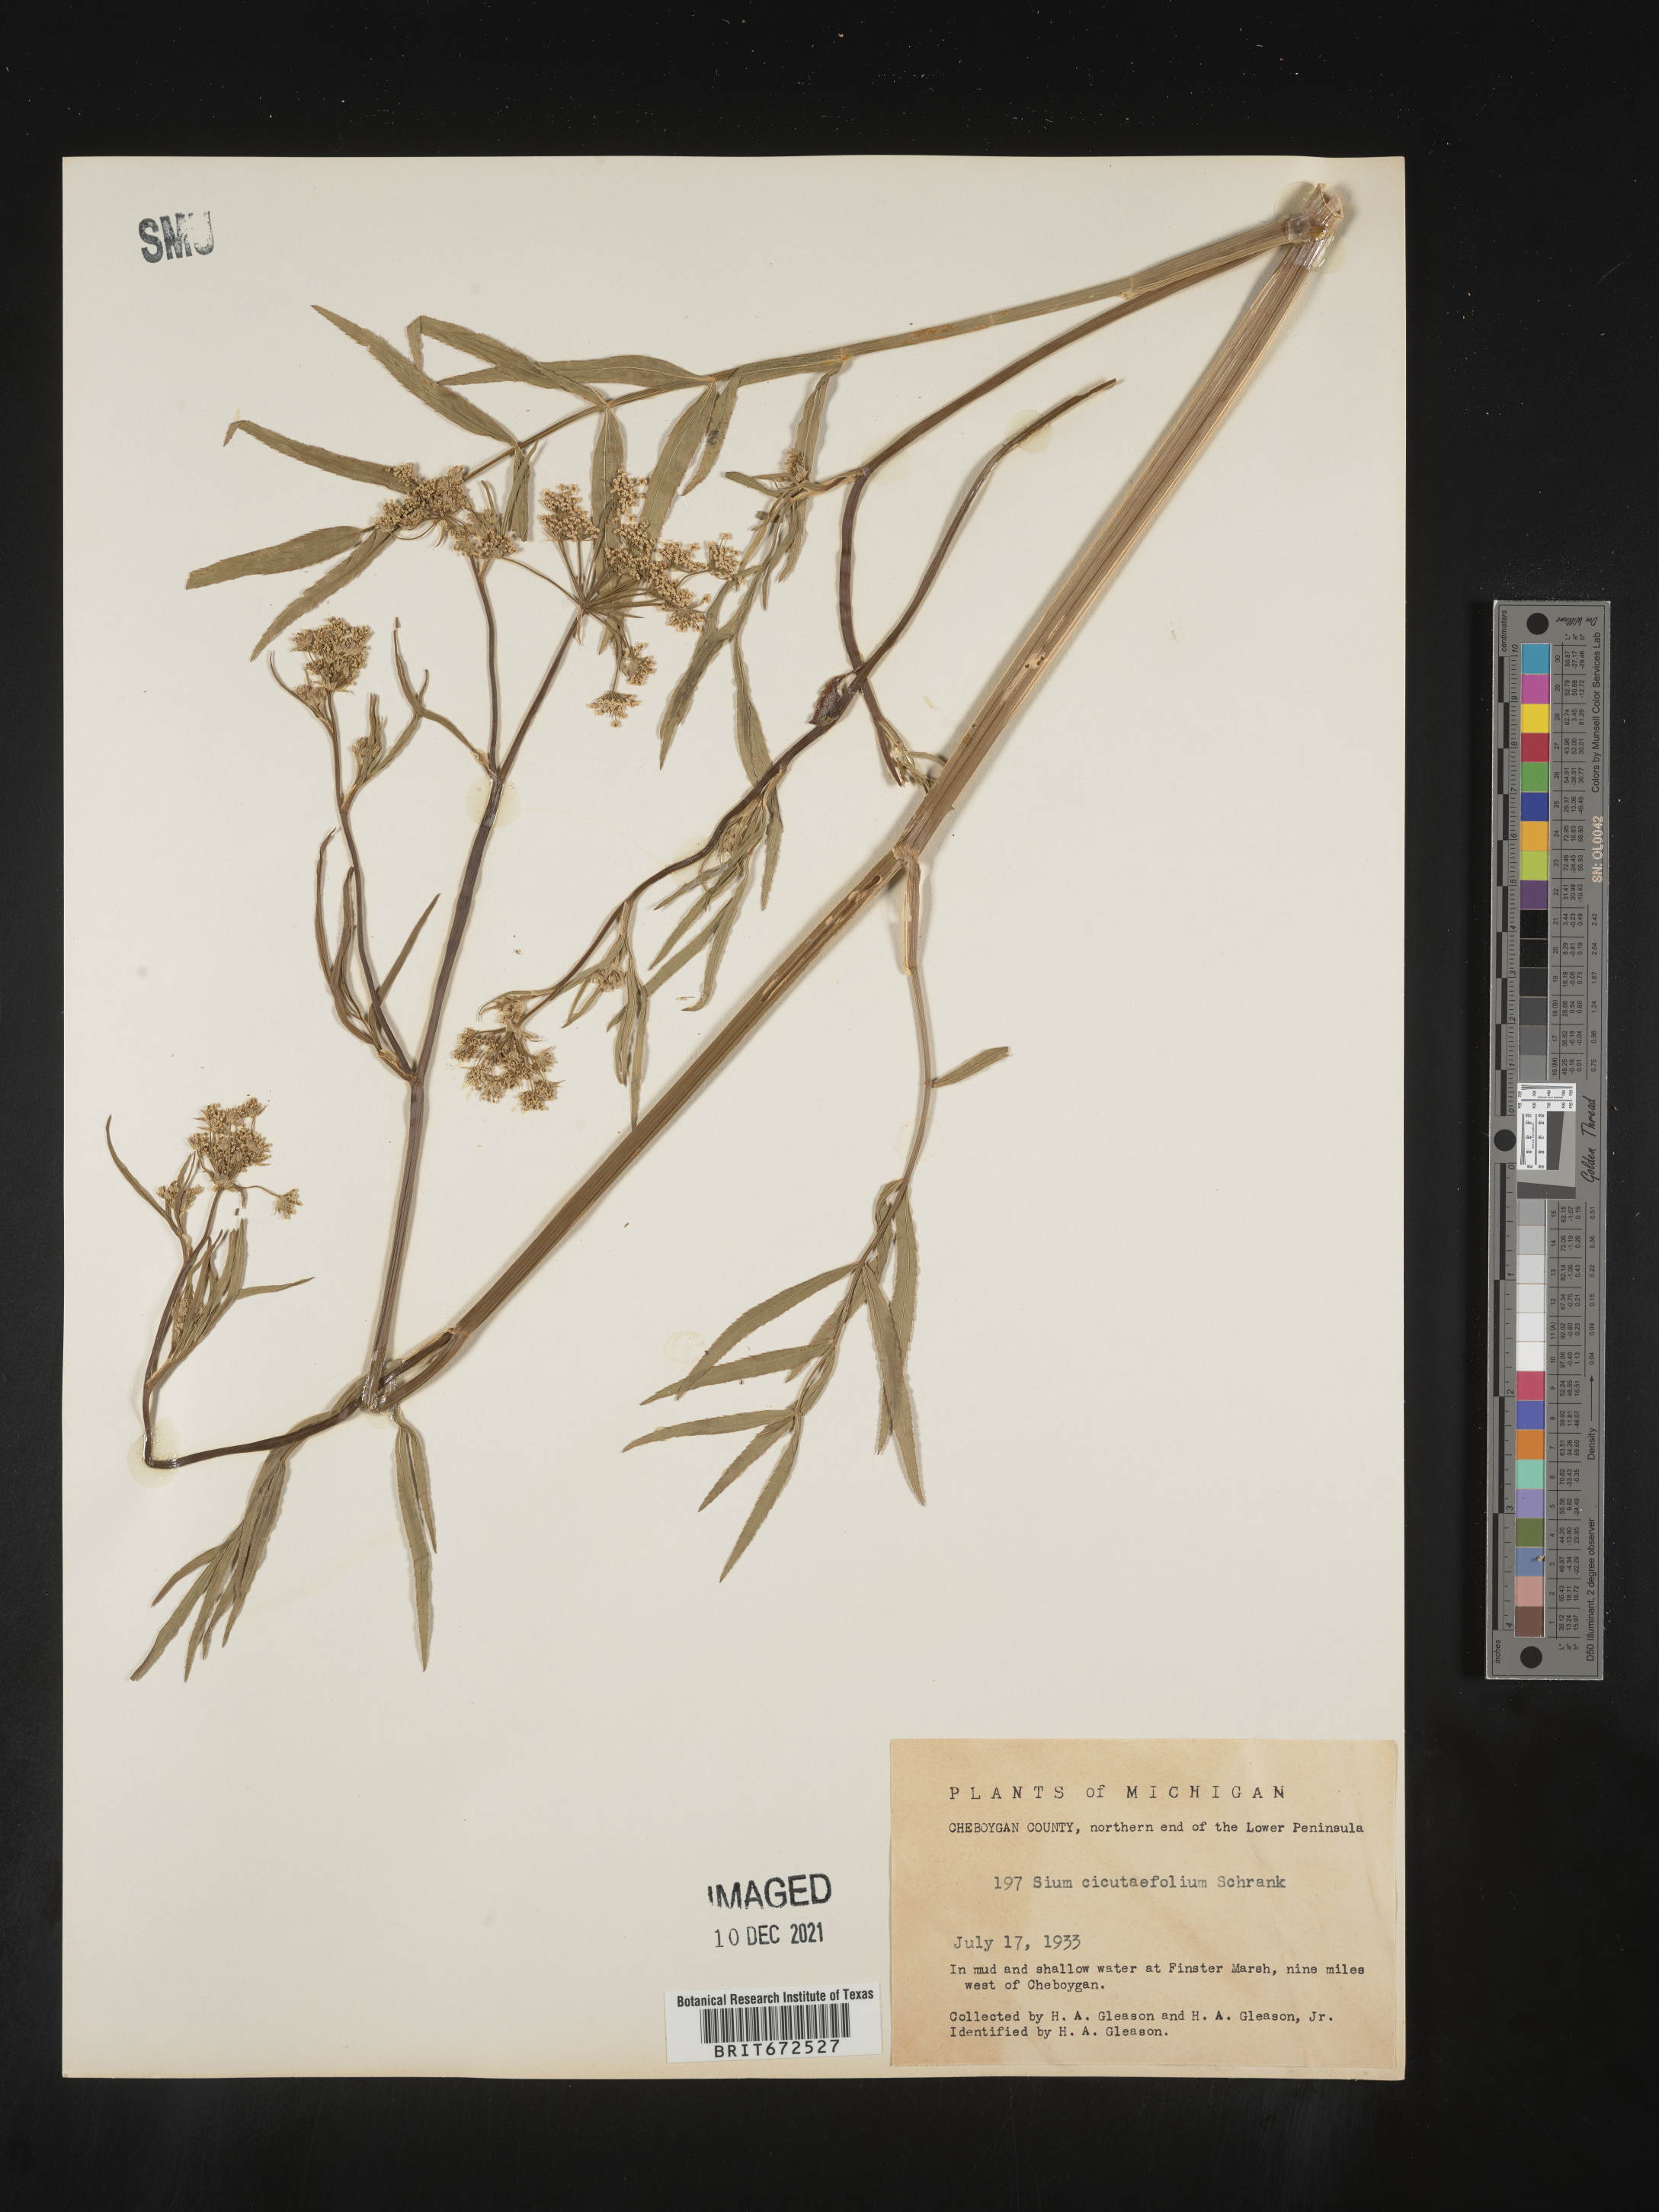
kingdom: Plantae
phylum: Tracheophyta
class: Magnoliopsida
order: Apiales
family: Apiaceae
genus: Sium
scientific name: Sium suave
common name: Hemlock water-parsnip
